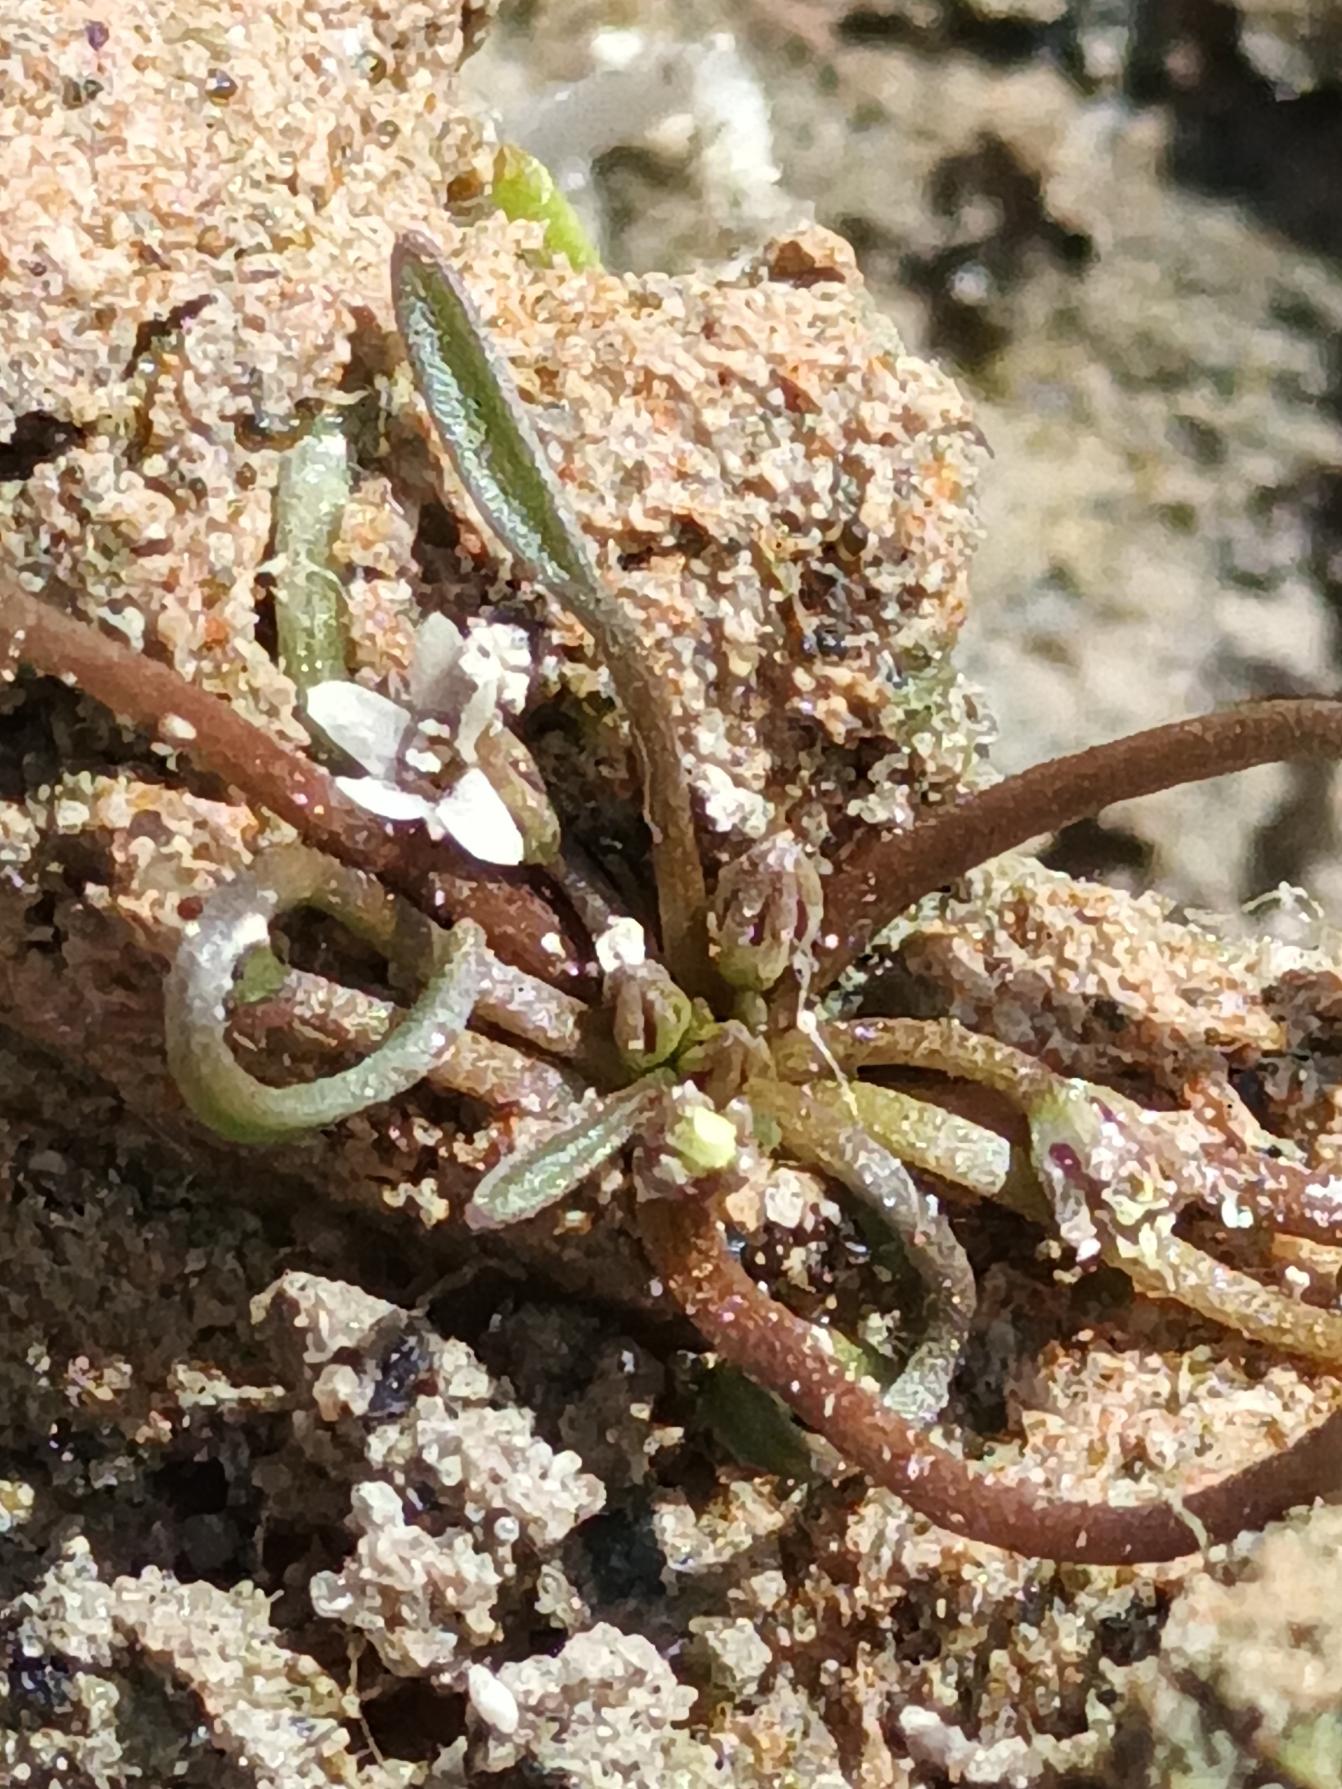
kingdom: Plantae
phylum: Tracheophyta
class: Magnoliopsida
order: Lamiales
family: Scrophulariaceae
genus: Limosella
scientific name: Limosella aquatica
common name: Dyndurt
